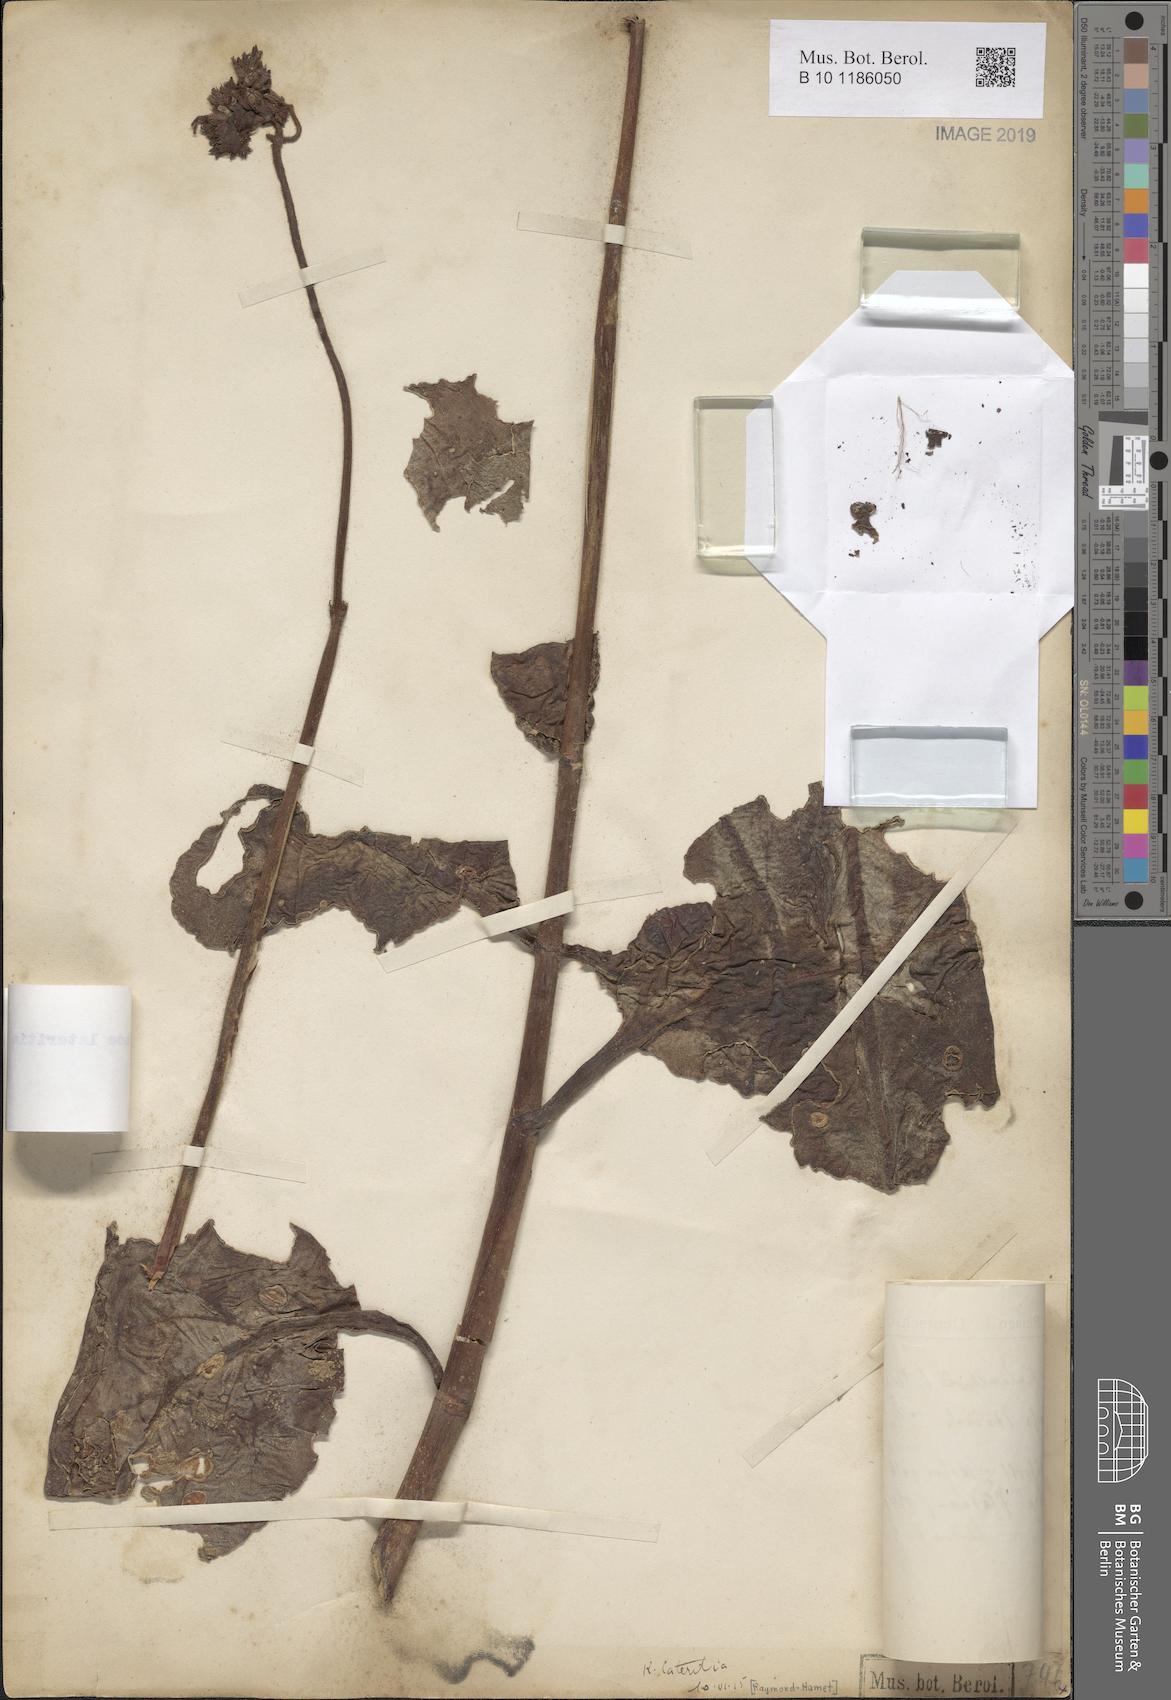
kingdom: Plantae
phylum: Tracheophyta
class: Magnoliopsida
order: Saxifragales
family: Crassulaceae
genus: Kalanchoe
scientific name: Kalanchoe lateritia
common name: Kalanchoe
